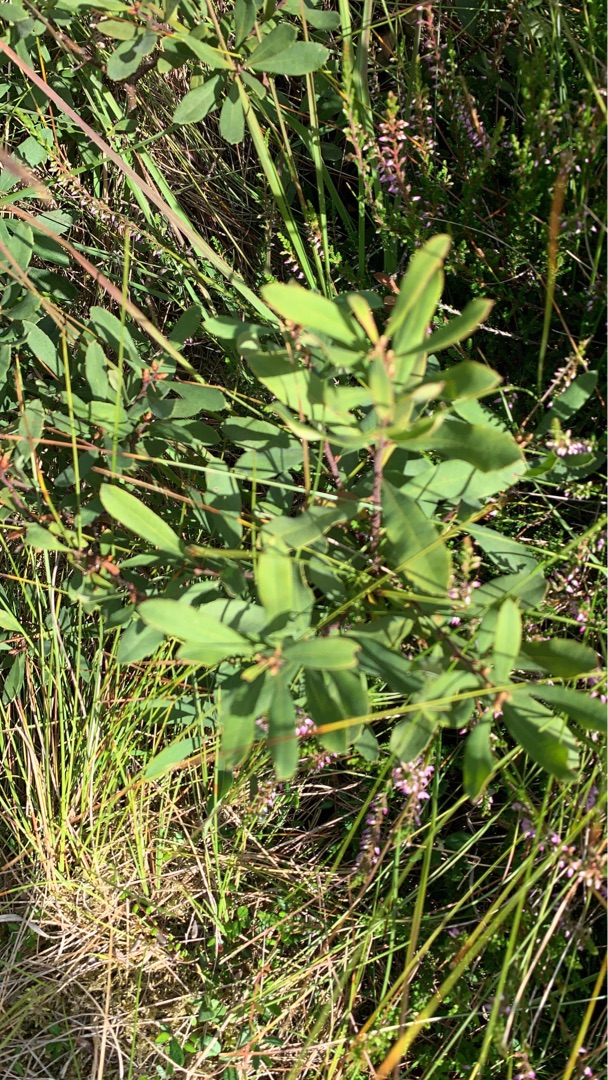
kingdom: Plantae
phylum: Tracheophyta
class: Magnoliopsida
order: Fagales
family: Myricaceae
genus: Myrica
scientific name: Myrica gale
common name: Pors
